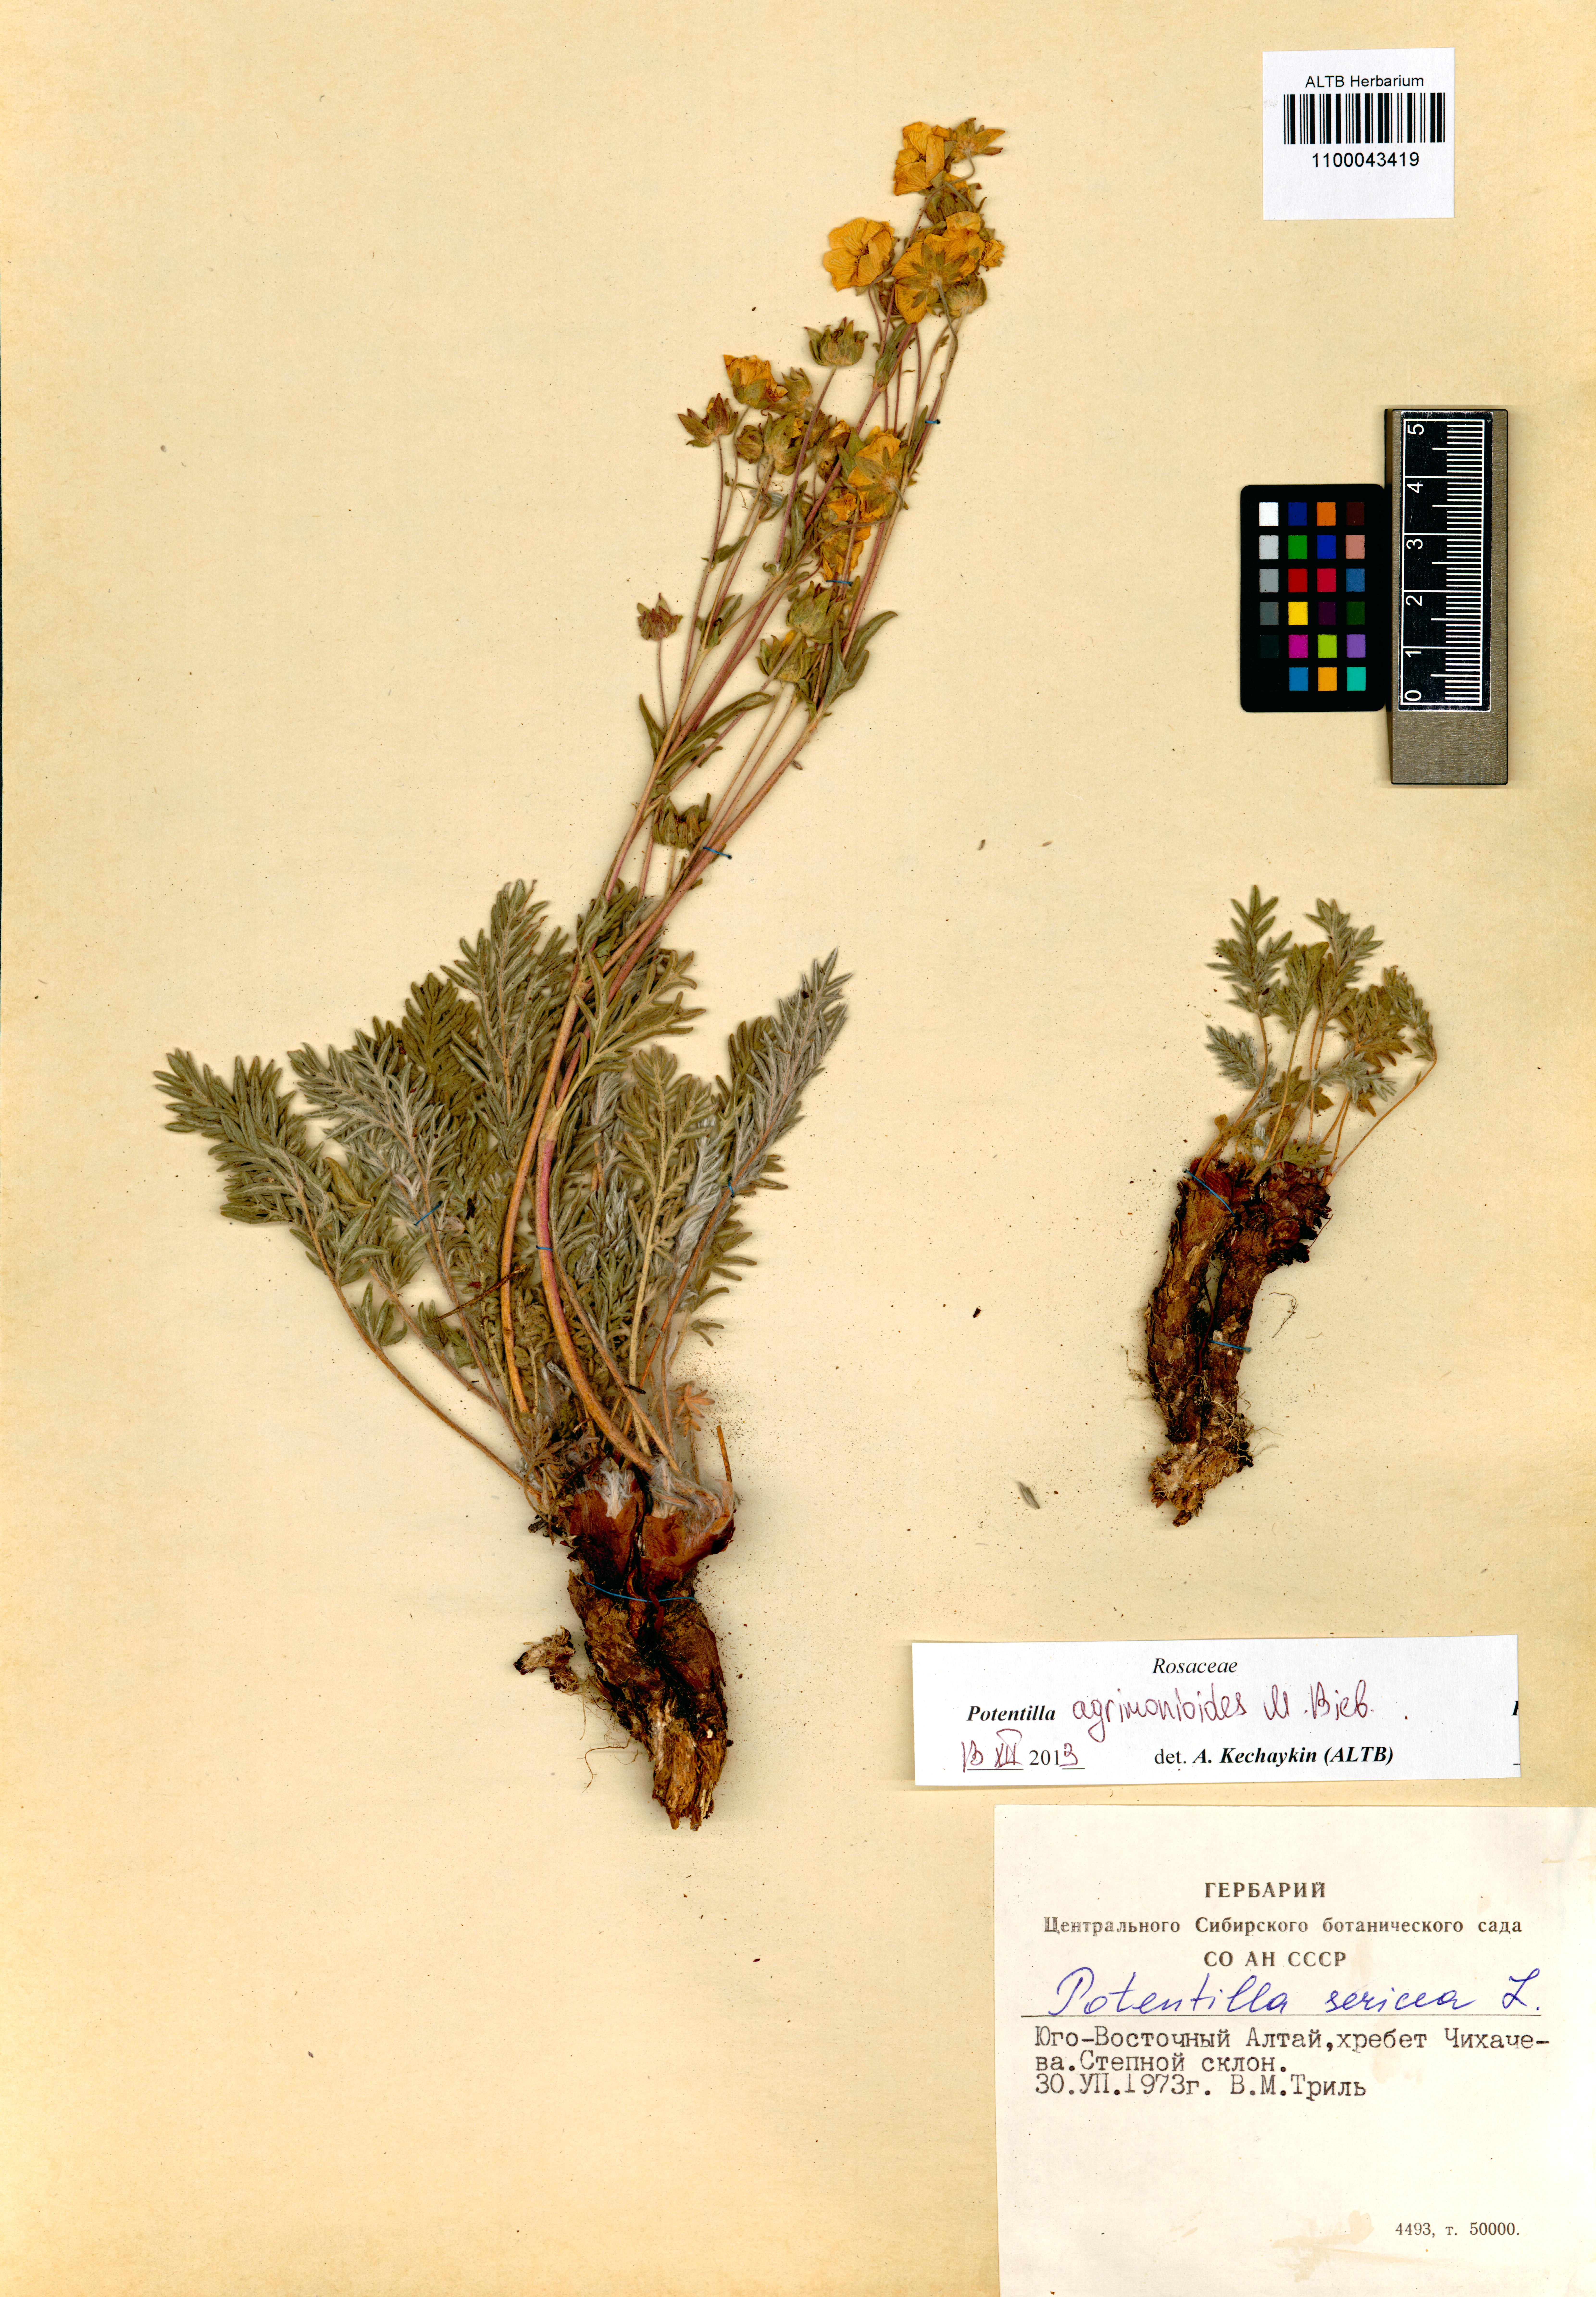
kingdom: Plantae
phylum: Tracheophyta
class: Magnoliopsida
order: Rosales
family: Rosaceae
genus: Potentilla
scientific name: Potentilla agrimonioides
